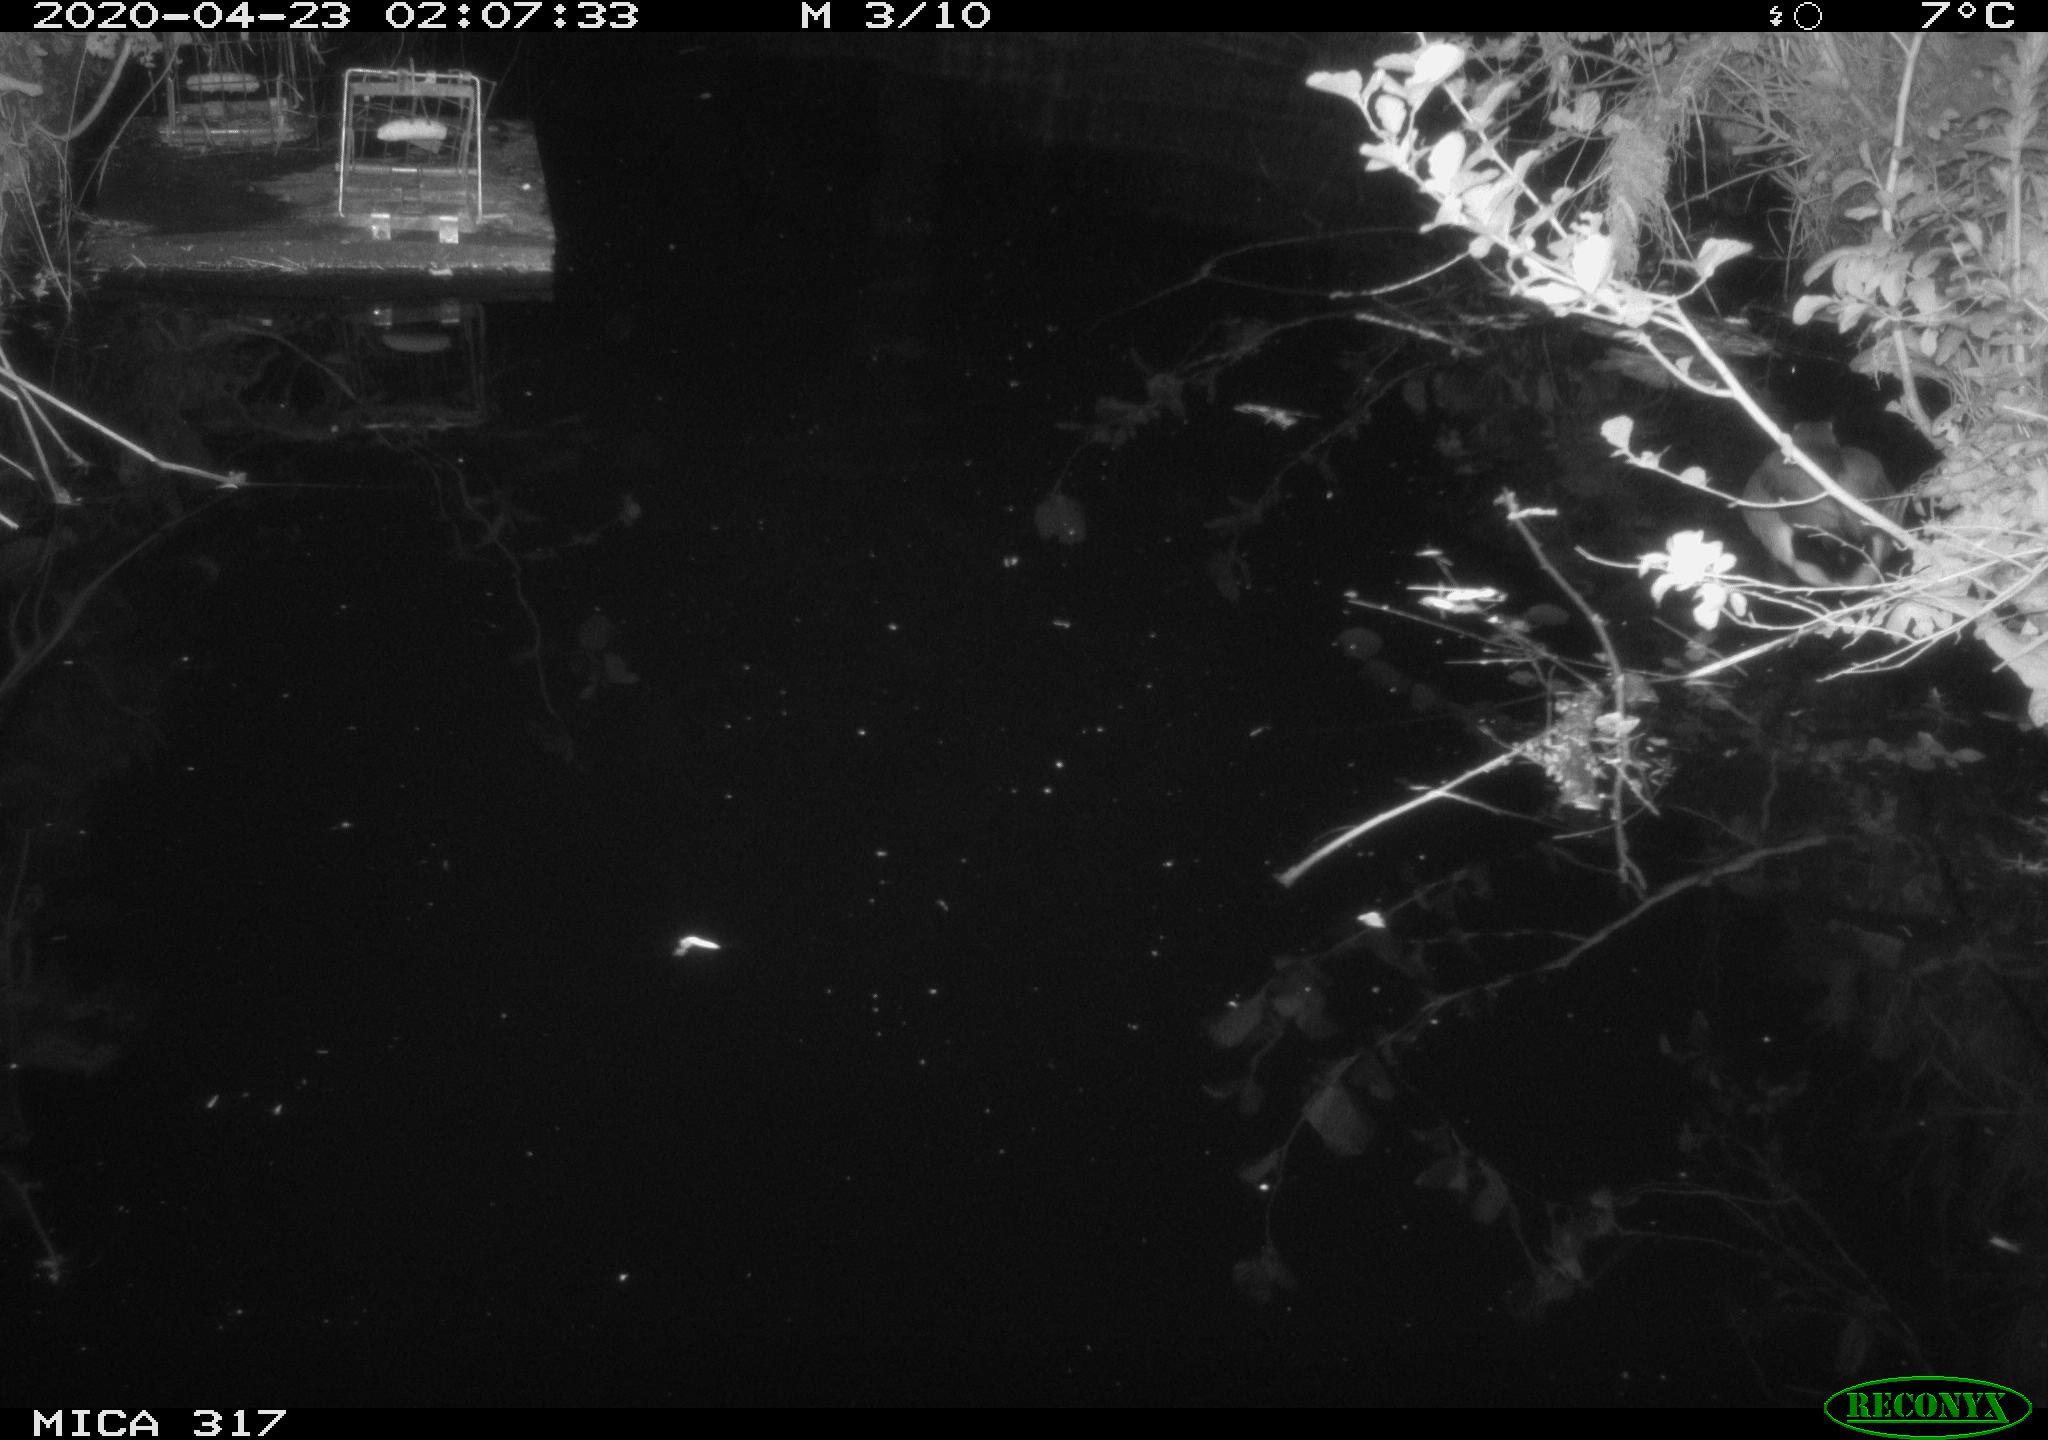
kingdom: Animalia
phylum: Chordata
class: Aves
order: Anseriformes
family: Anatidae
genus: Anas
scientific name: Anas platyrhynchos
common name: Mallard
